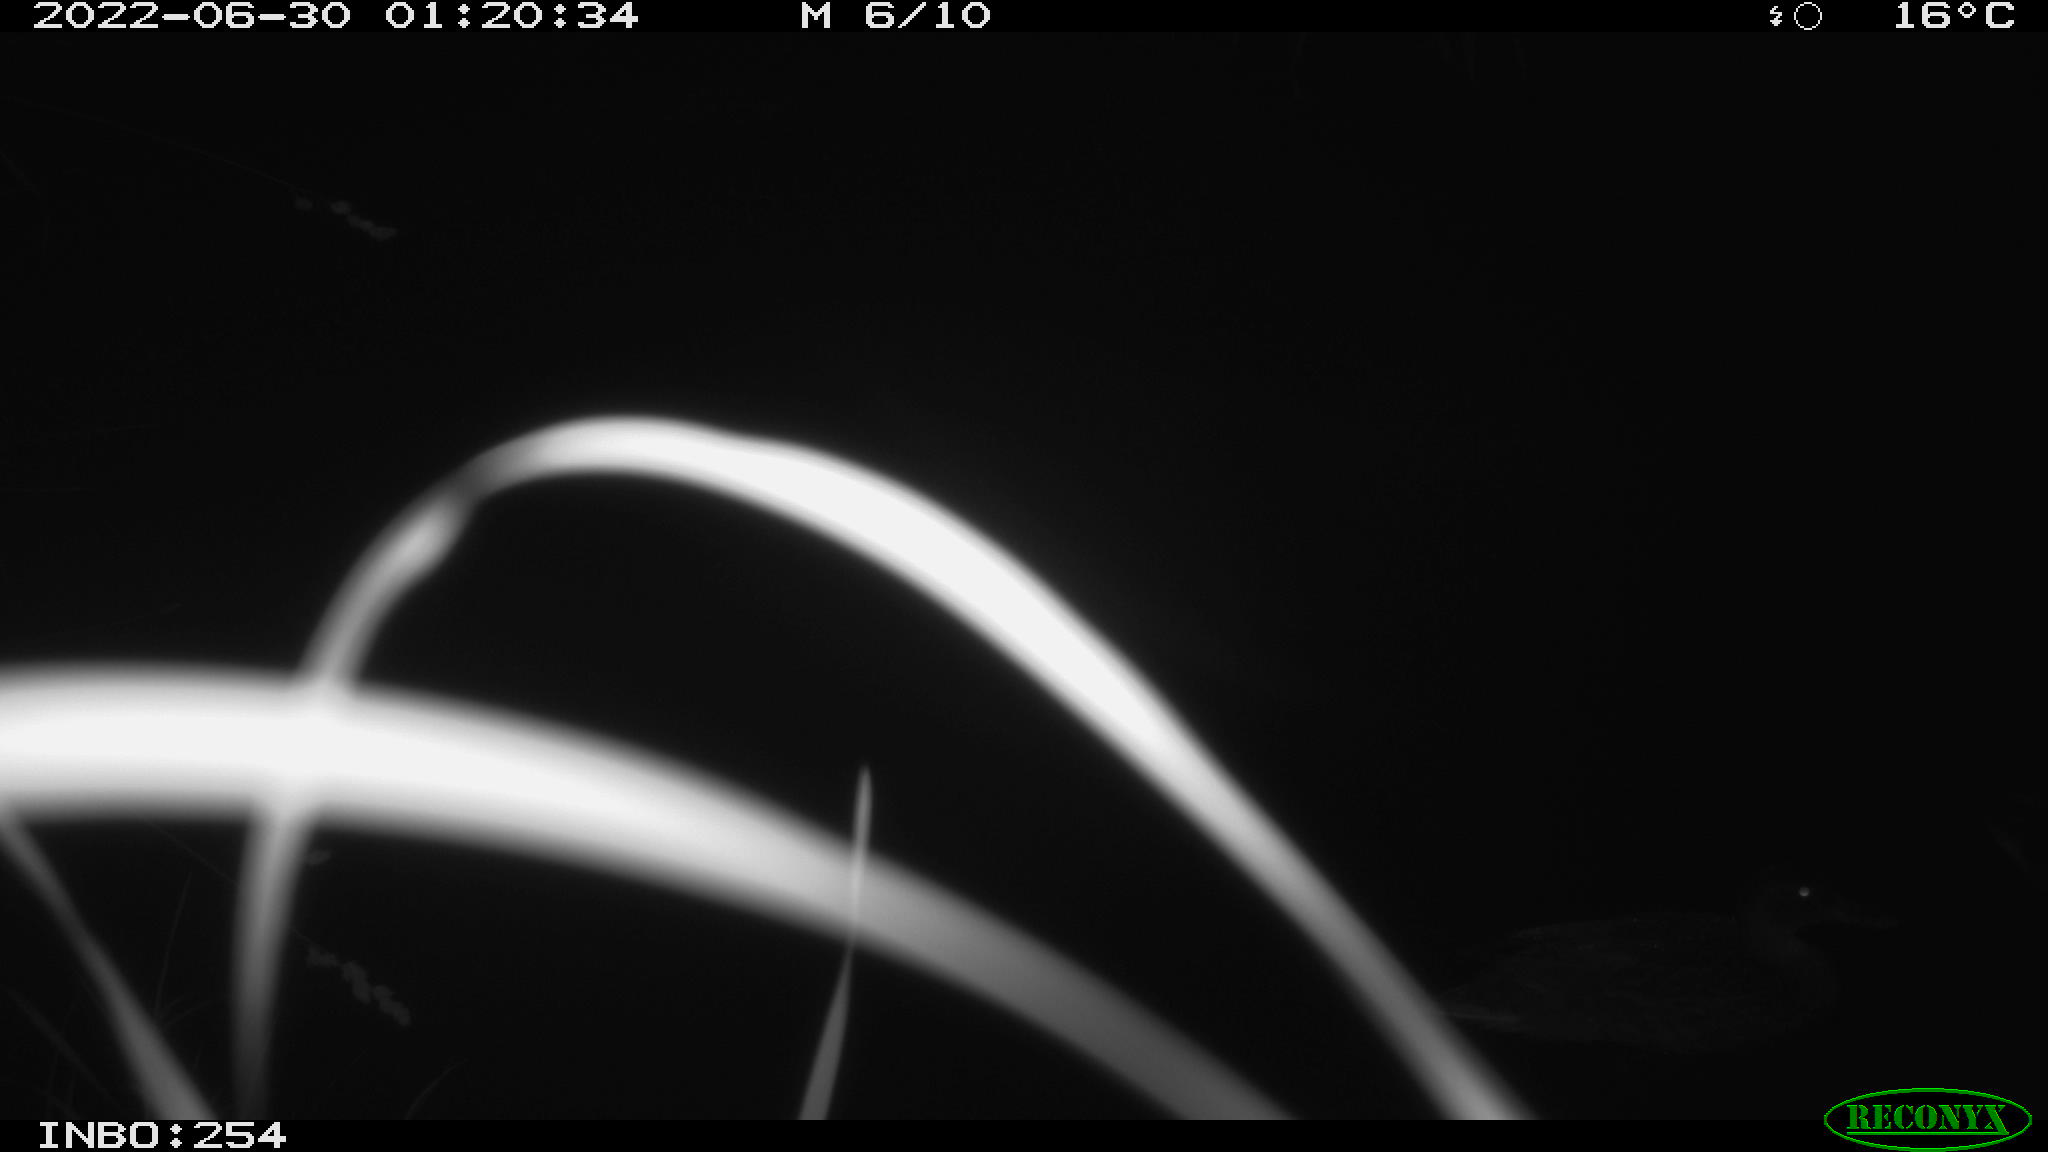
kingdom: Animalia
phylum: Chordata
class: Aves
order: Anseriformes
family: Anatidae
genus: Anas
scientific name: Anas platyrhynchos
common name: Mallard
